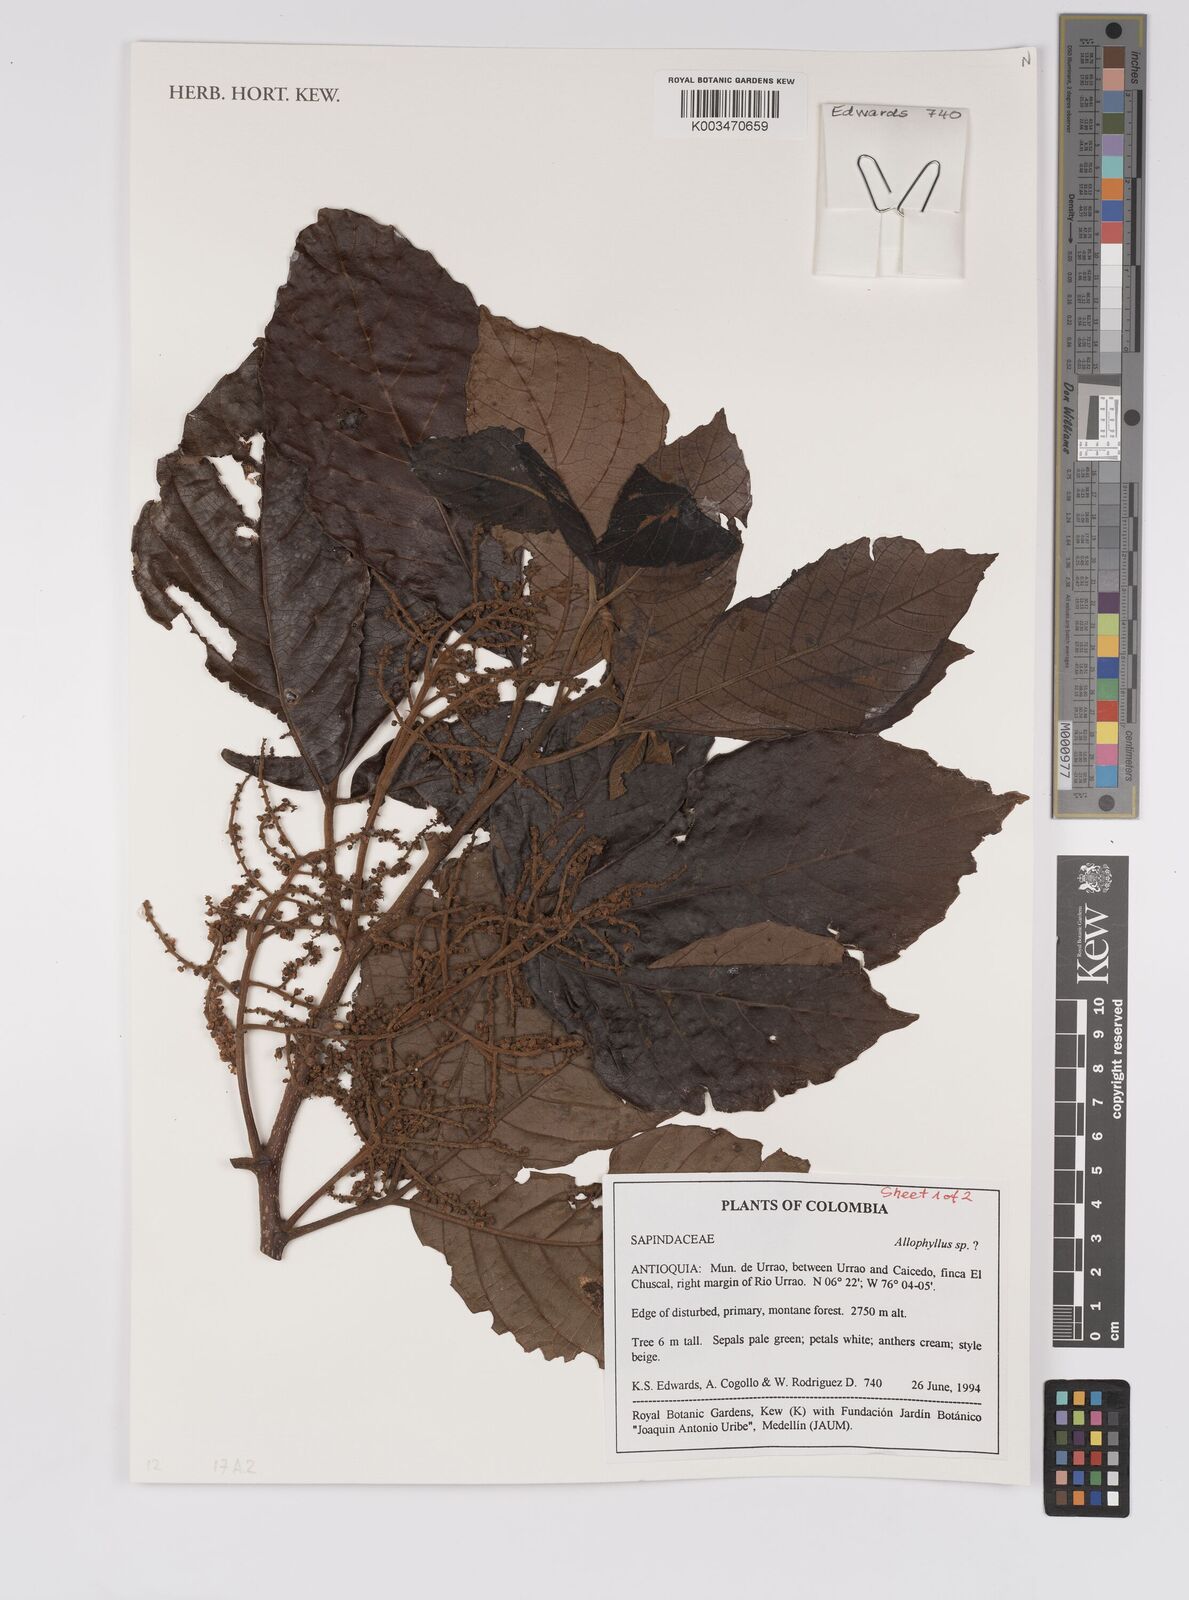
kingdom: Plantae
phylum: Tracheophyta
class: Magnoliopsida
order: Sapindales
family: Sapindaceae
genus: Allophylus
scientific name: Allophylus
